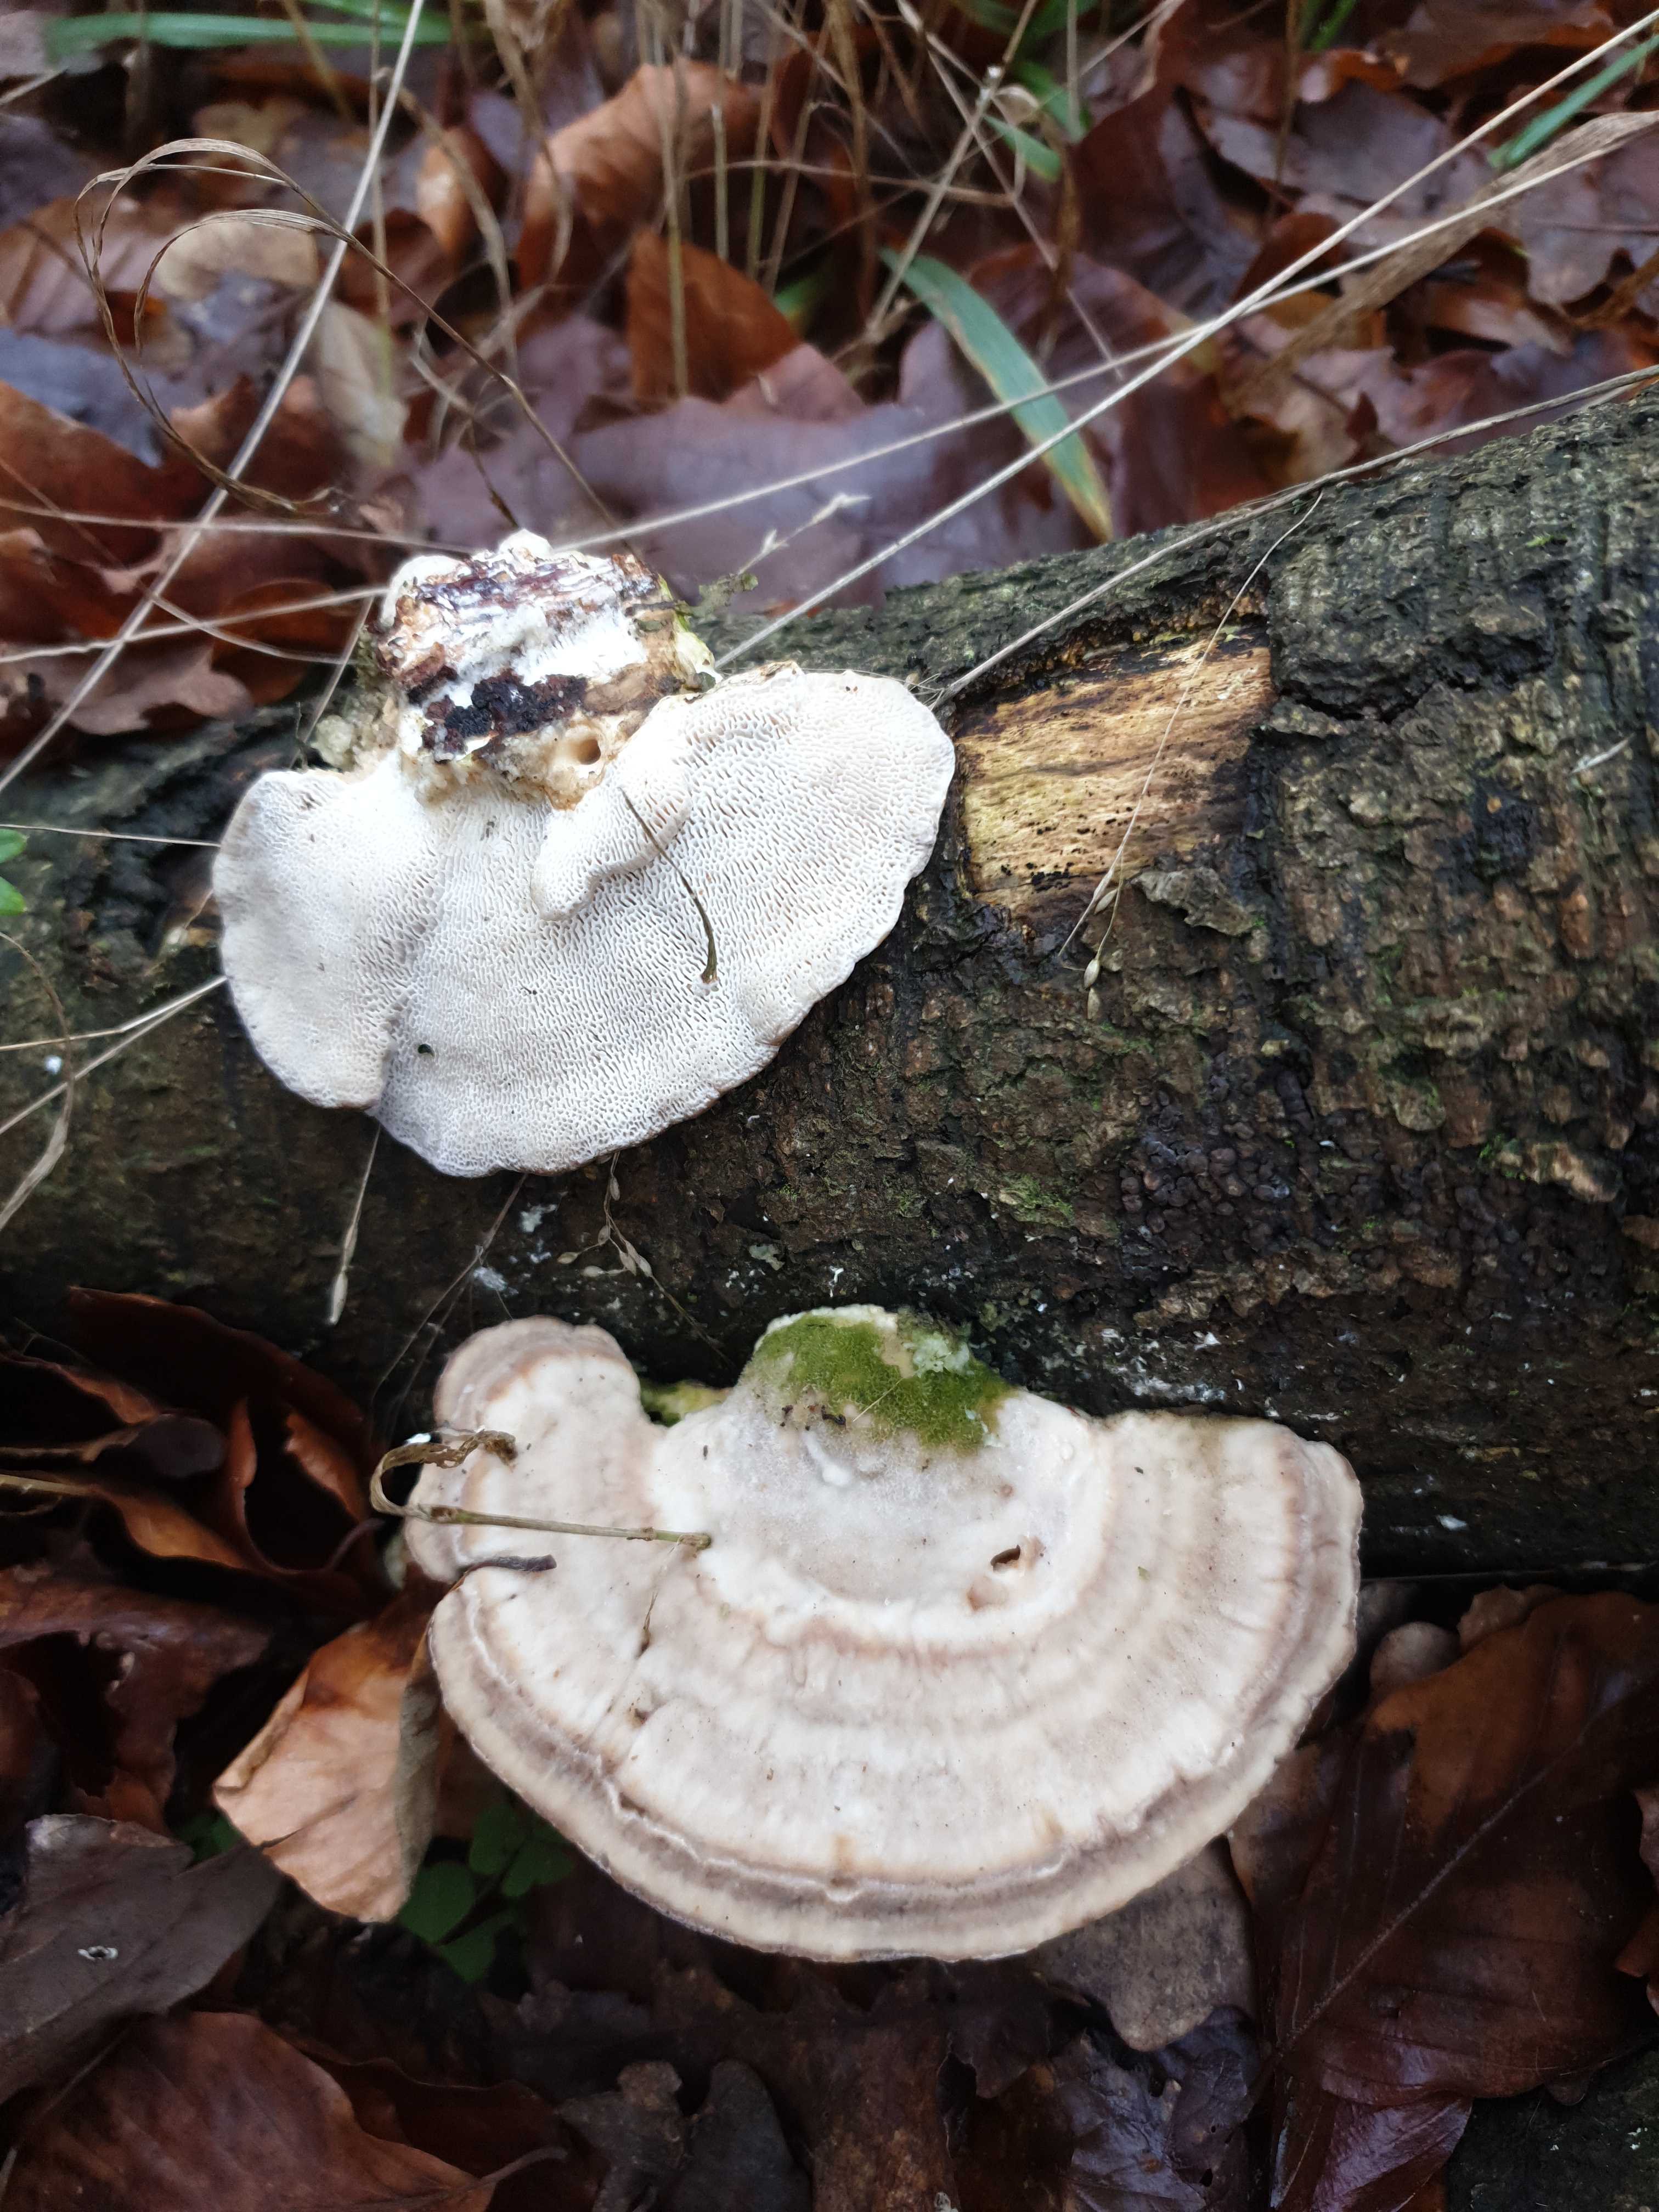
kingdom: Fungi
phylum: Basidiomycota
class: Agaricomycetes
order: Polyporales
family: Polyporaceae
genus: Trametes
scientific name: Trametes gibbosa
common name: puklet læderporesvamp
